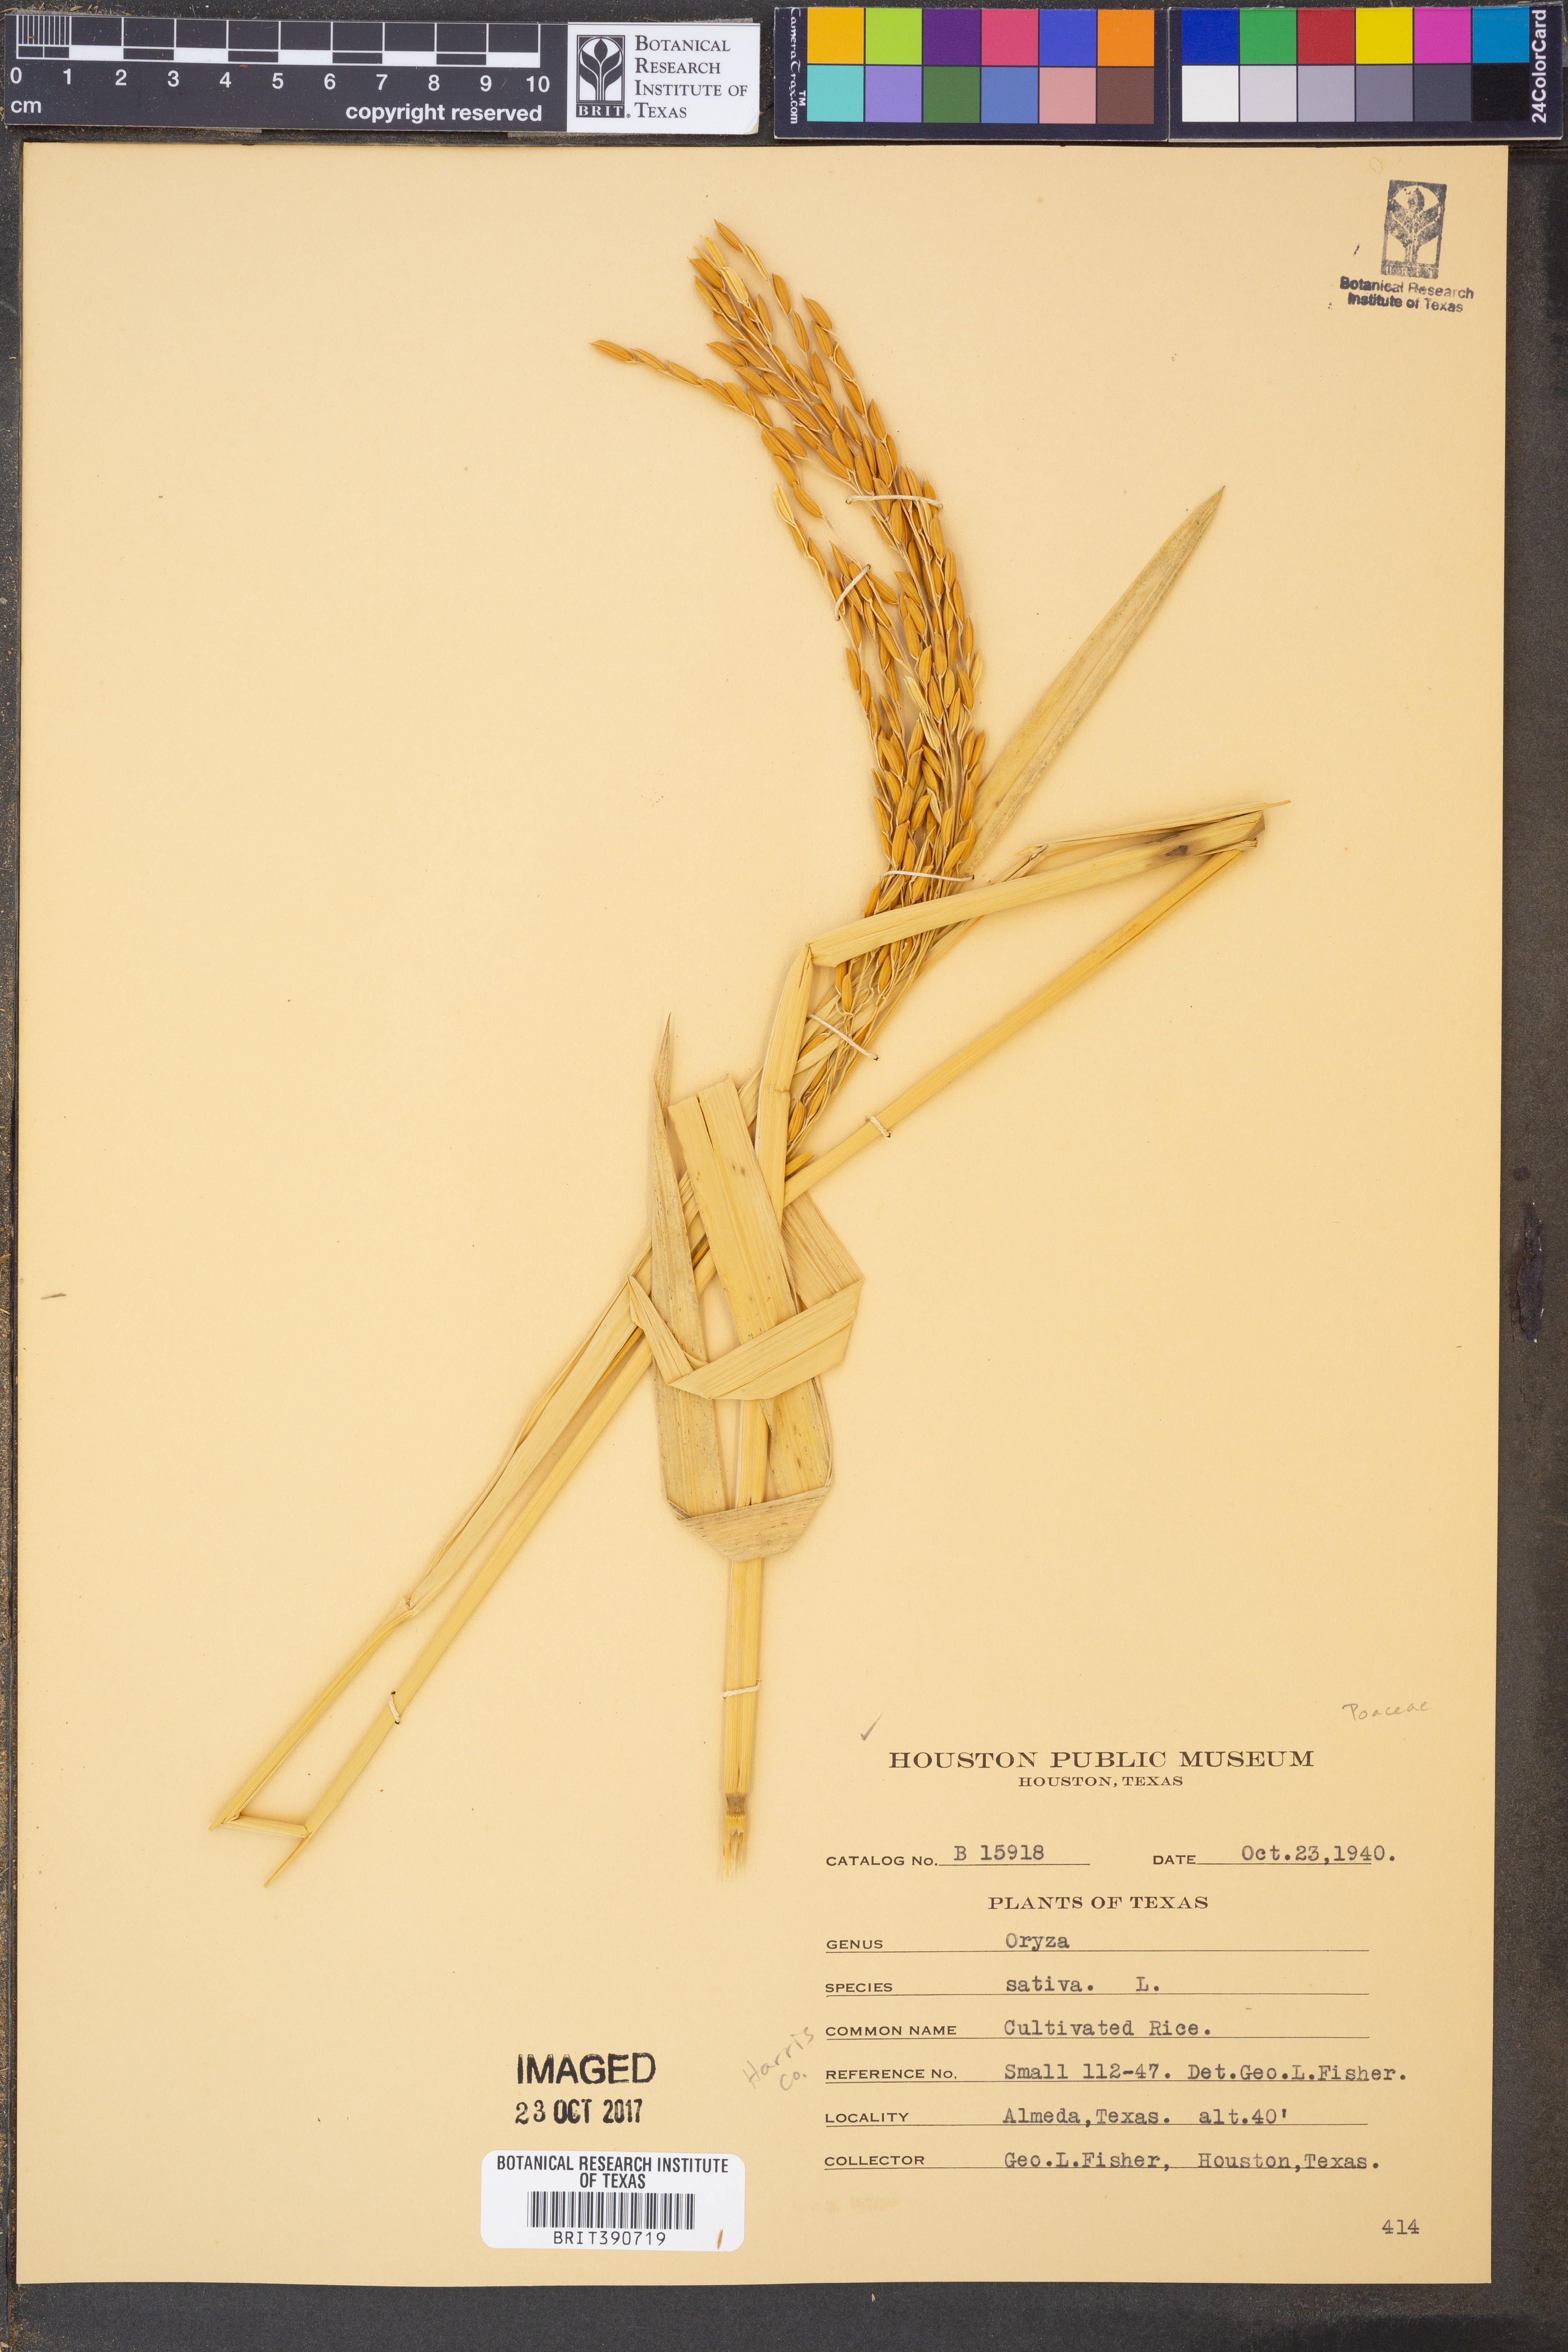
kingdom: Plantae
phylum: Tracheophyta
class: Liliopsida
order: Poales
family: Poaceae
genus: Oryza
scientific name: Oryza sativa
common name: Rice
